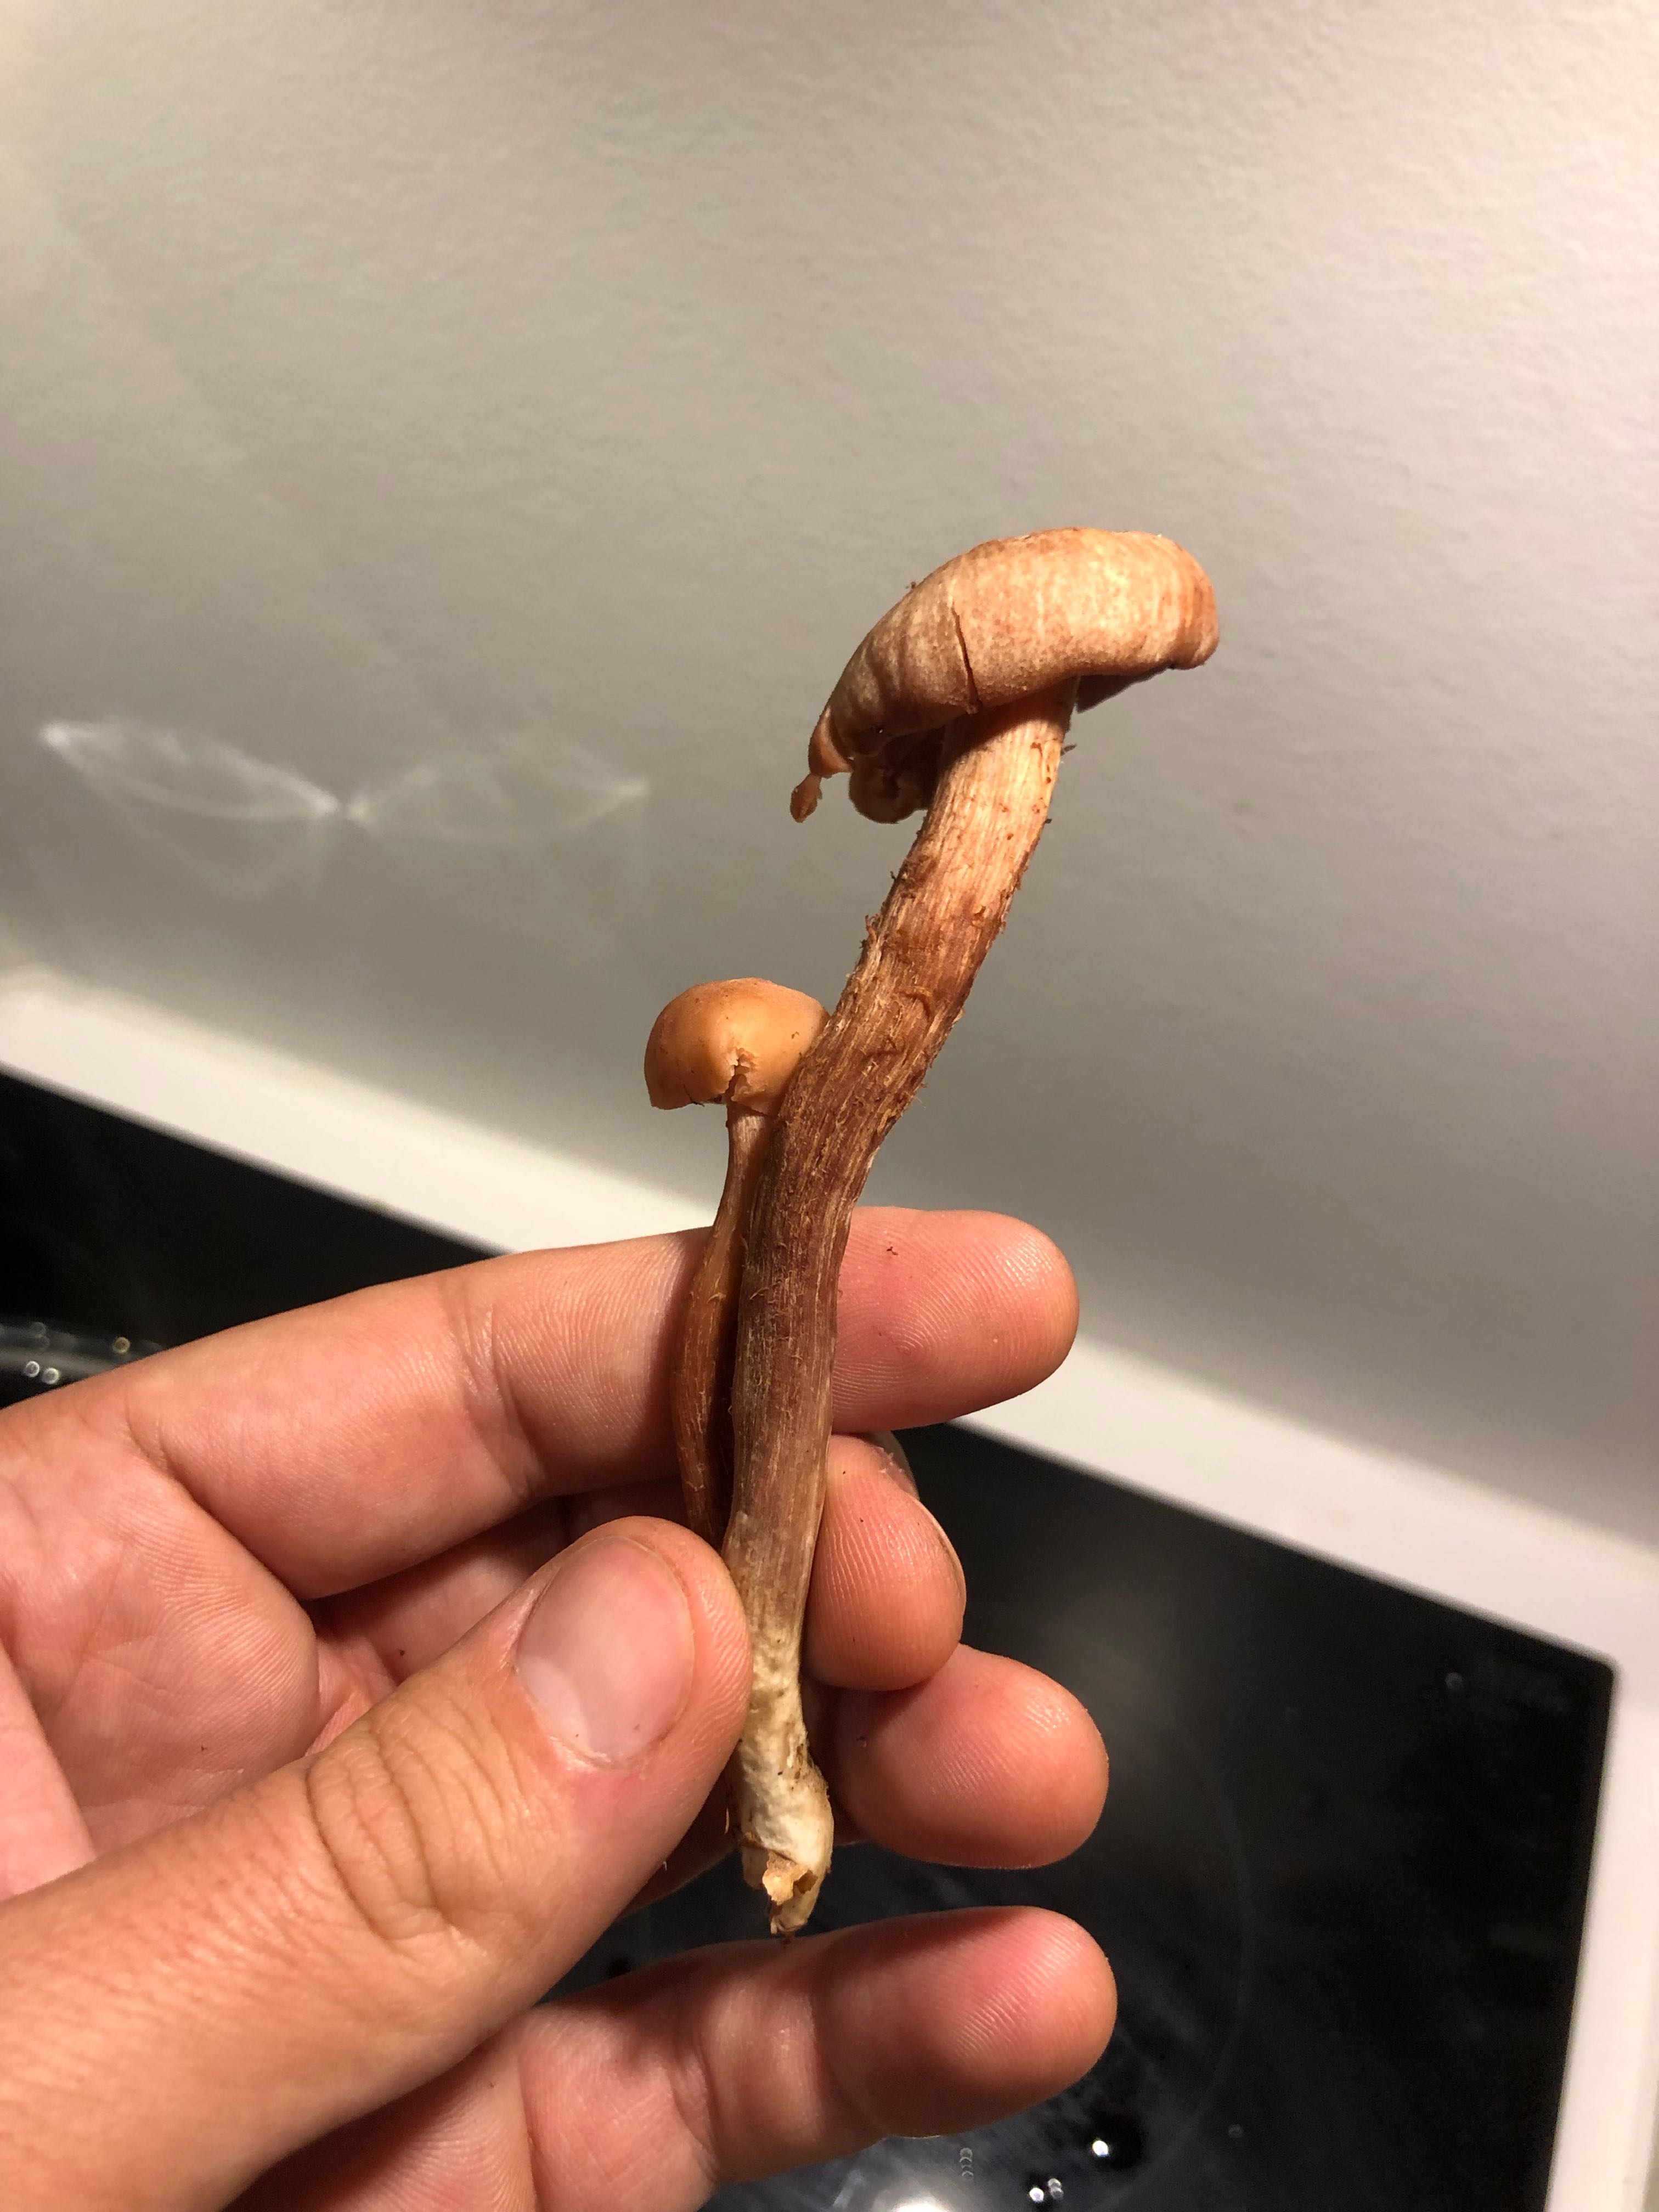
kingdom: Fungi
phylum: Basidiomycota
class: Agaricomycetes
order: Agaricales
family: Hydnangiaceae
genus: Laccaria
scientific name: Laccaria
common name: ametysthat
